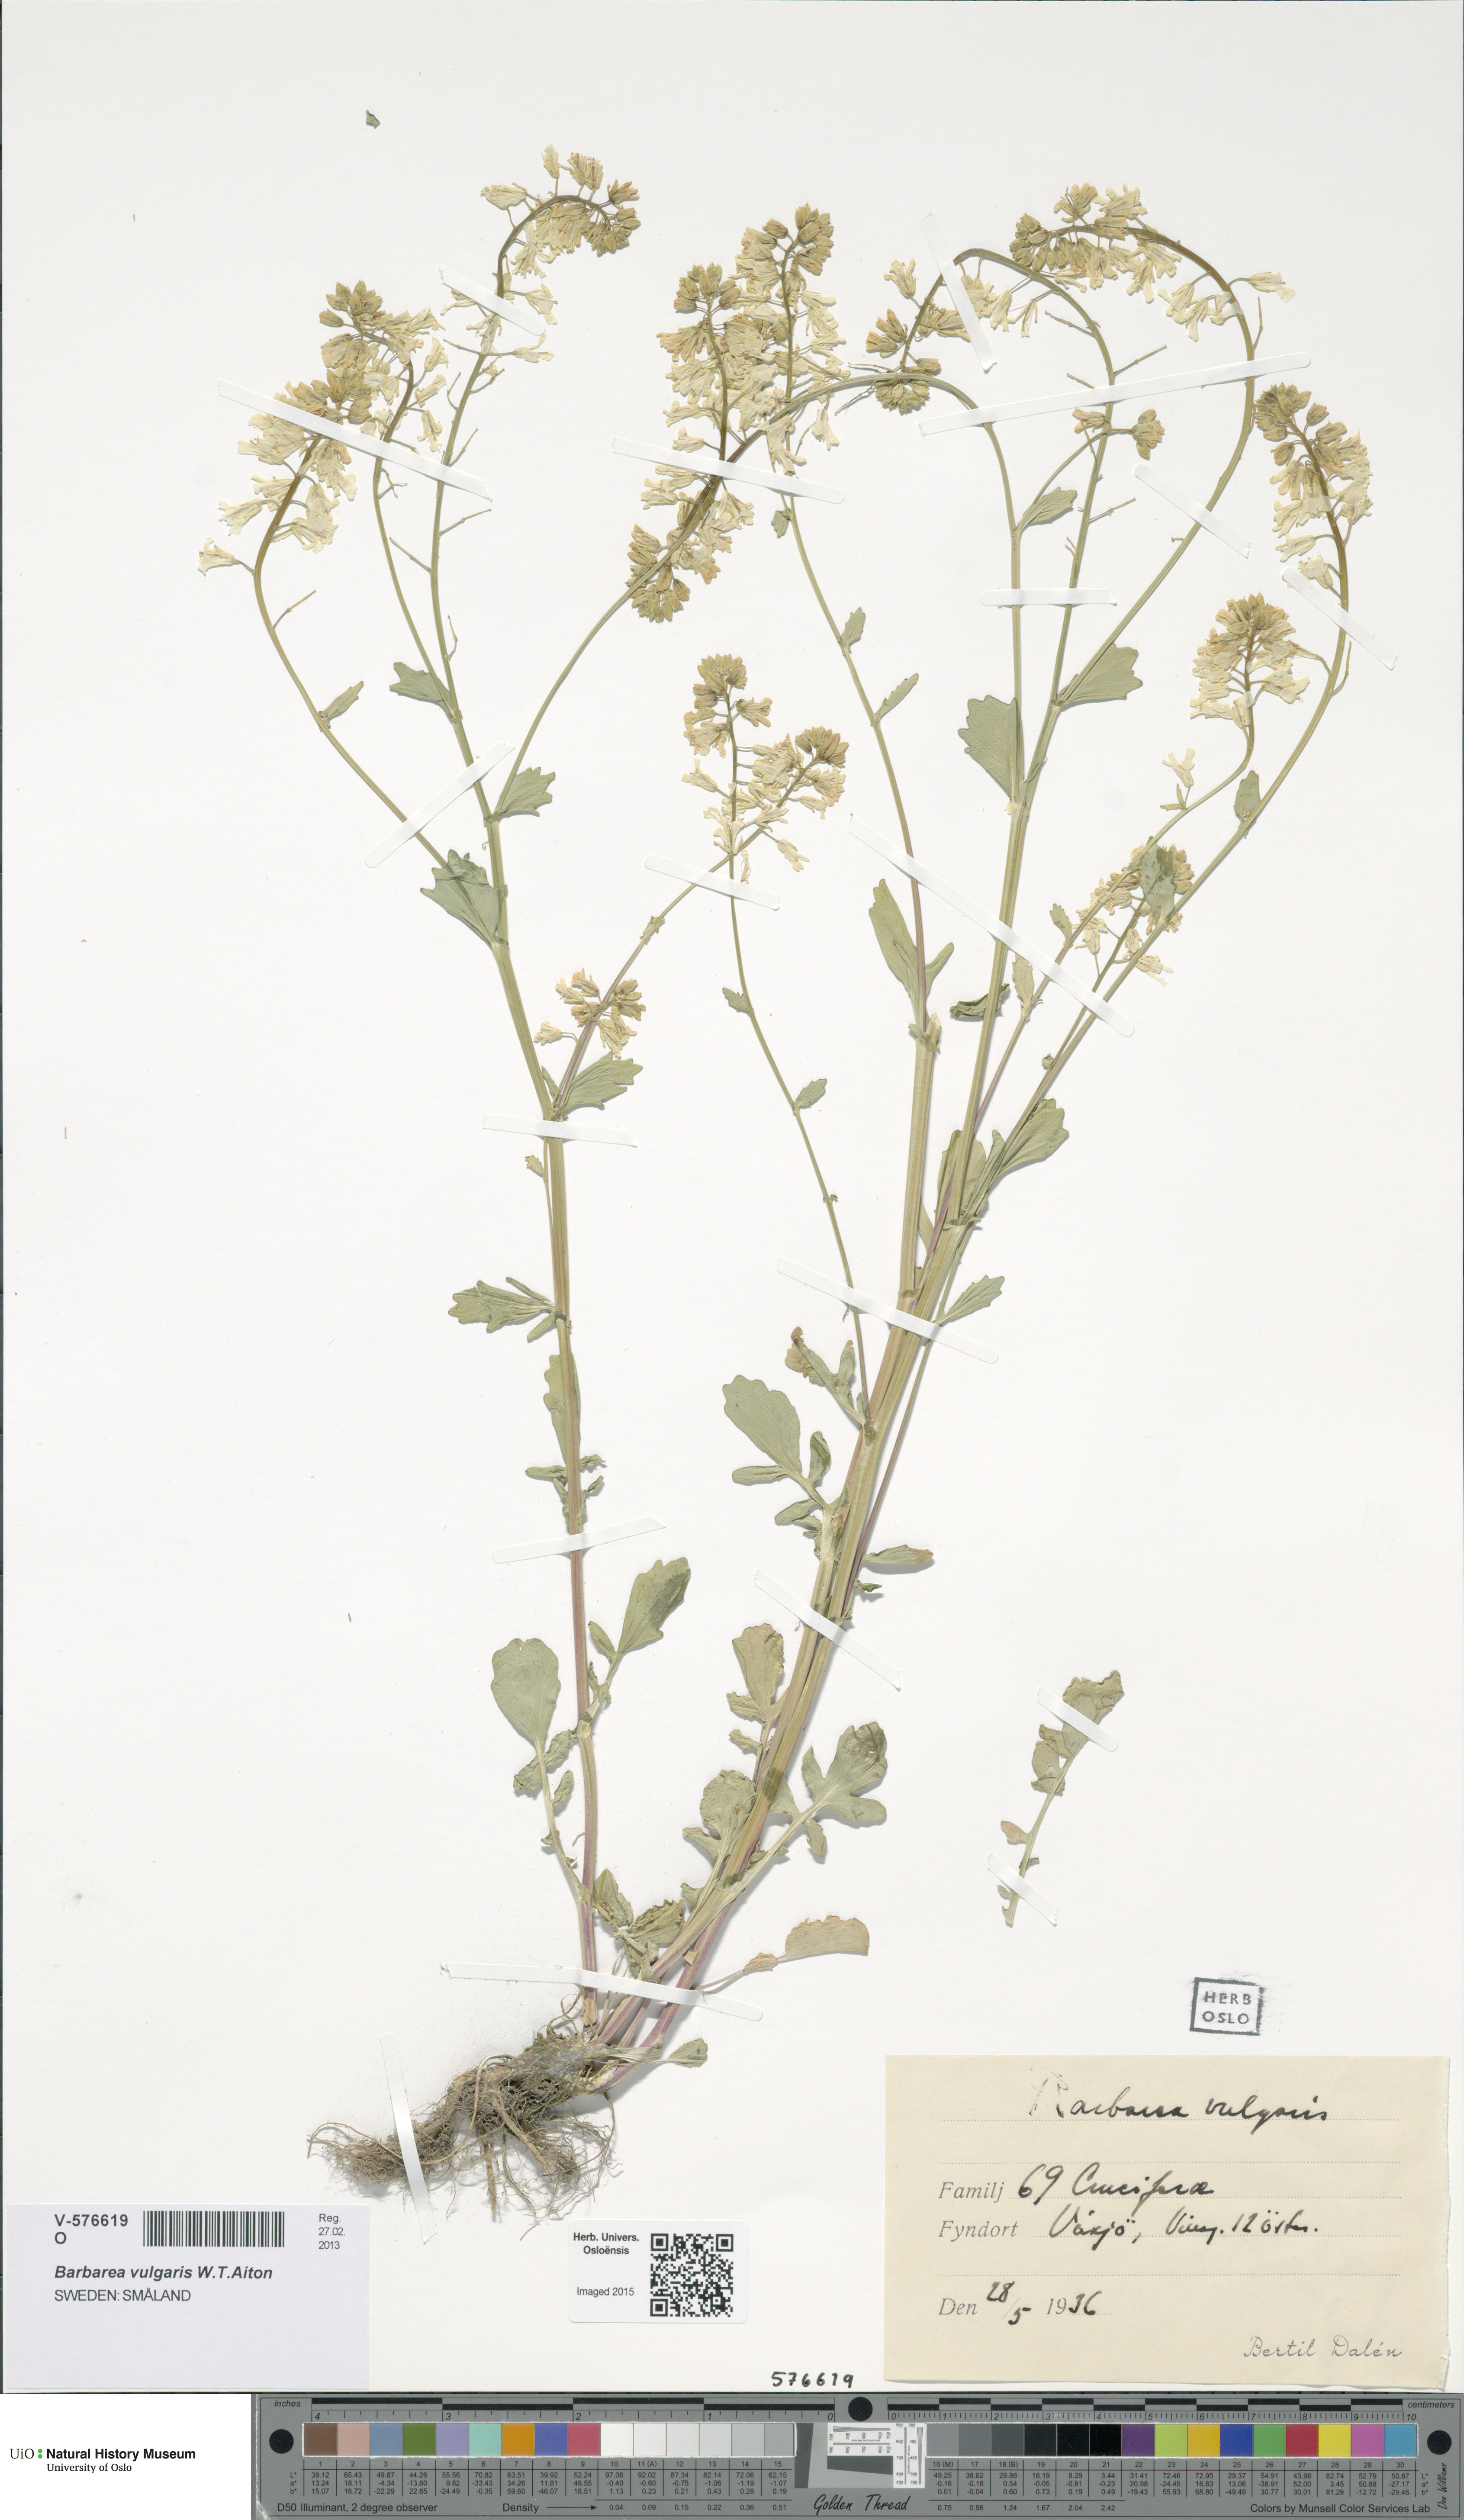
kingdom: Plantae
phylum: Tracheophyta
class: Magnoliopsida
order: Brassicales
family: Brassicaceae
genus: Barbarea
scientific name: Barbarea vulgaris
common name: Cressy-greens
